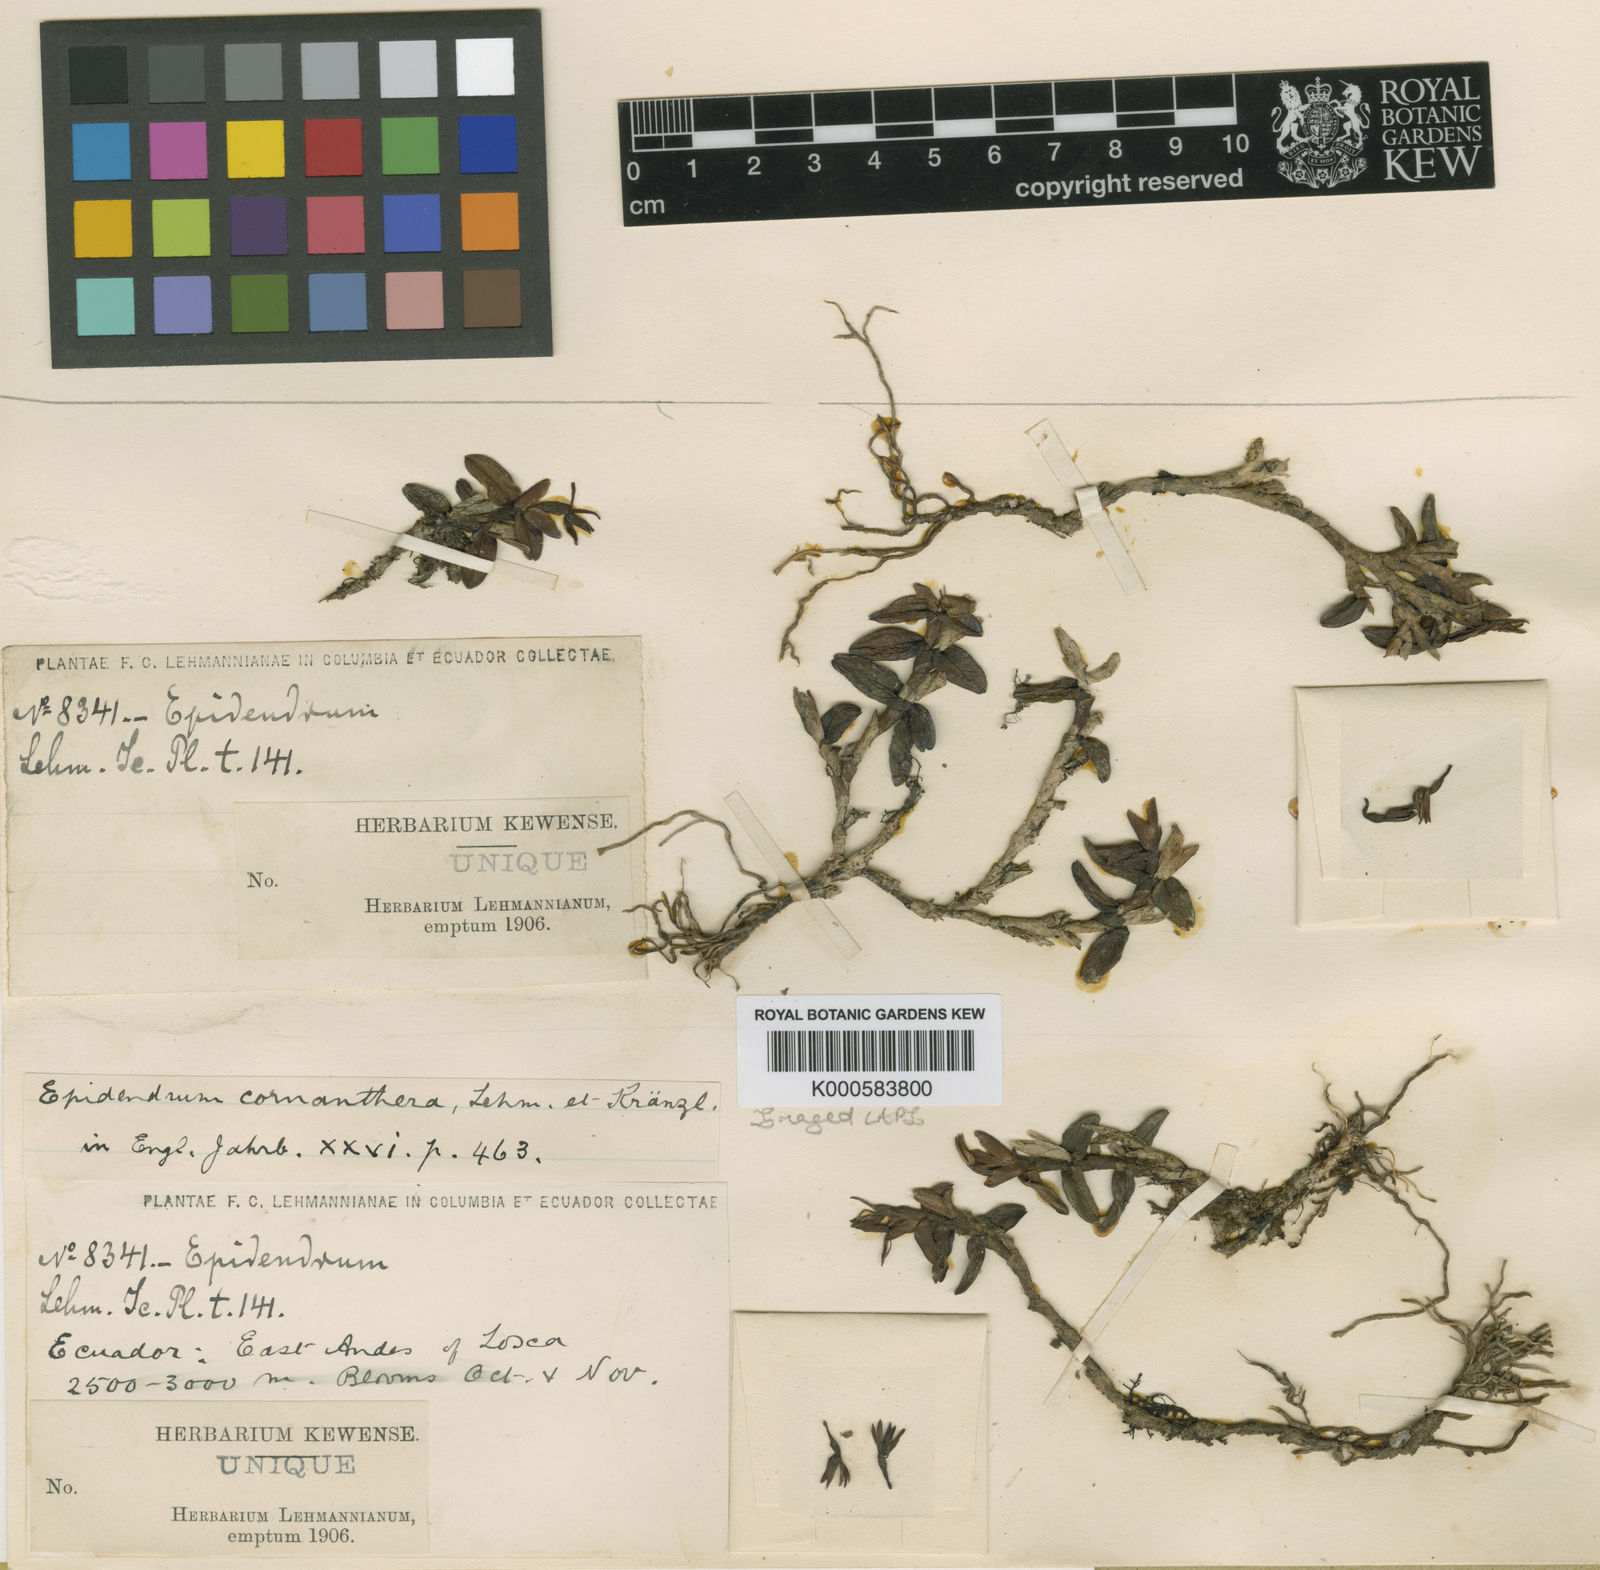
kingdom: Plantae
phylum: Tracheophyta
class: Liliopsida
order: Asparagales
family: Orchidaceae
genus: Epidendrum
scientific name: Epidendrum cornanthera
